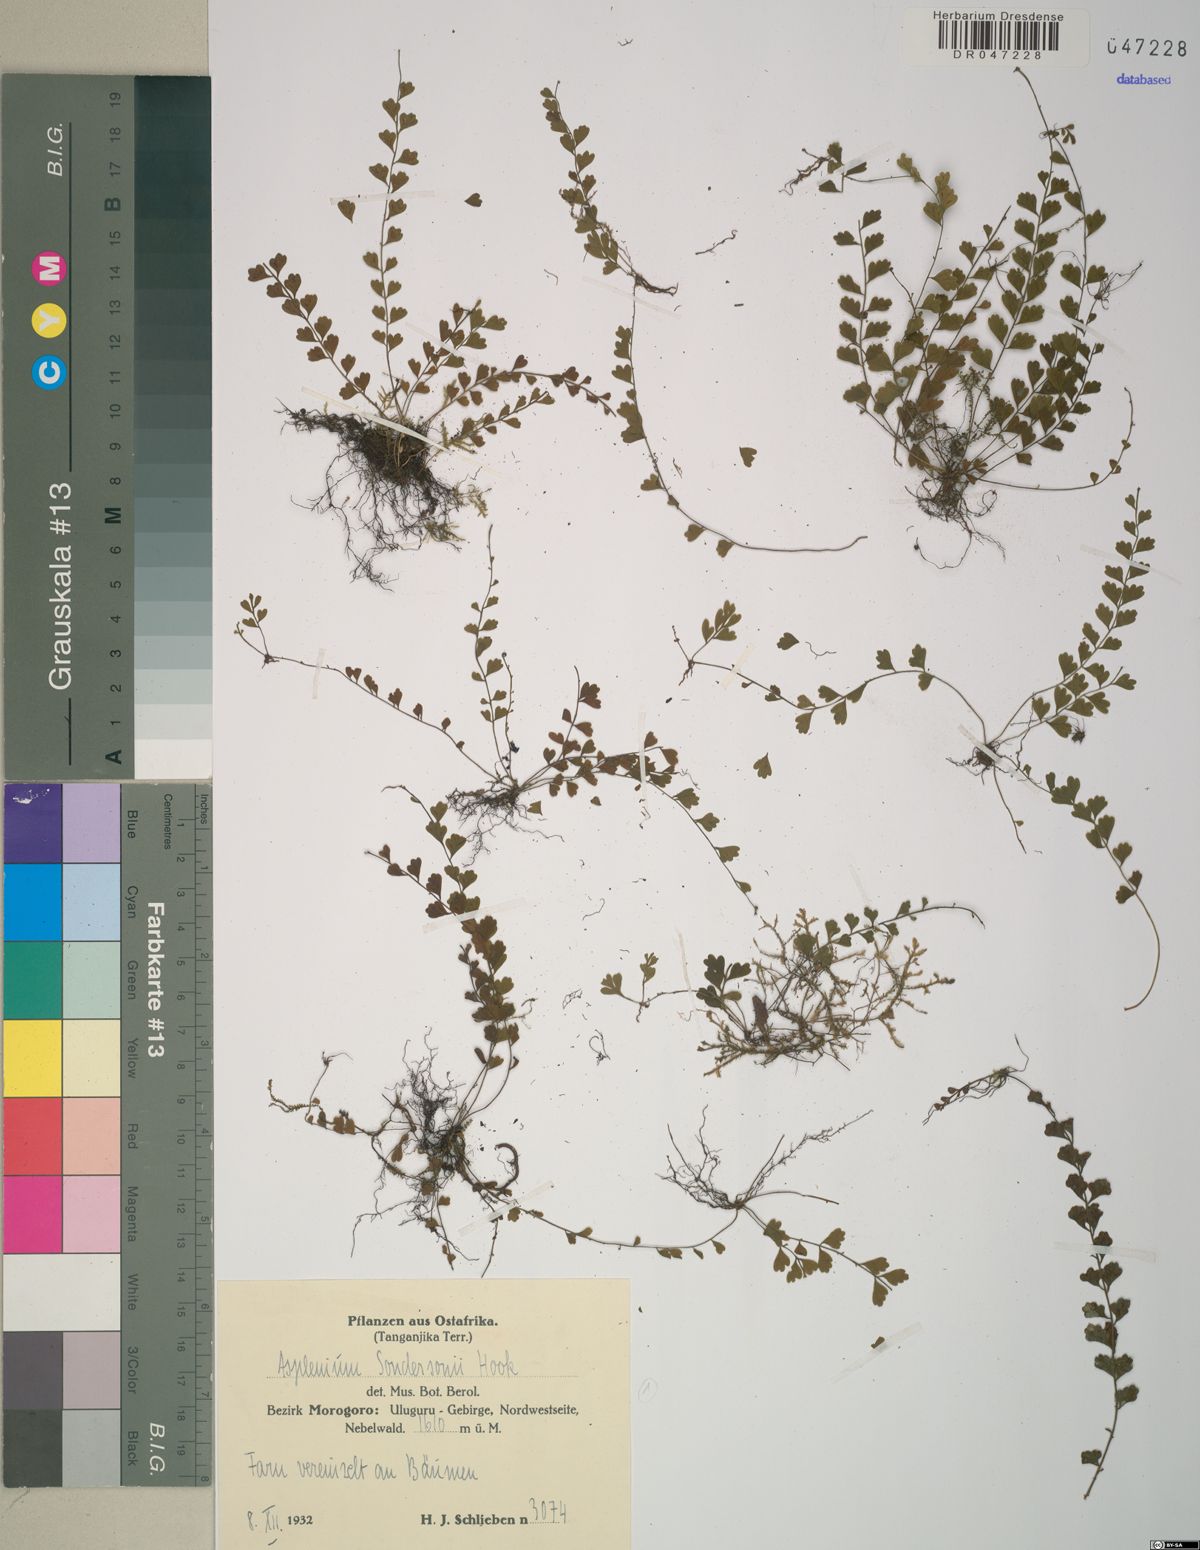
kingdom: Plantae
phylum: Tracheophyta
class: Polypodiopsida
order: Polypodiales
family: Aspleniaceae
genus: Asplenium
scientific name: Asplenium sandersonii
